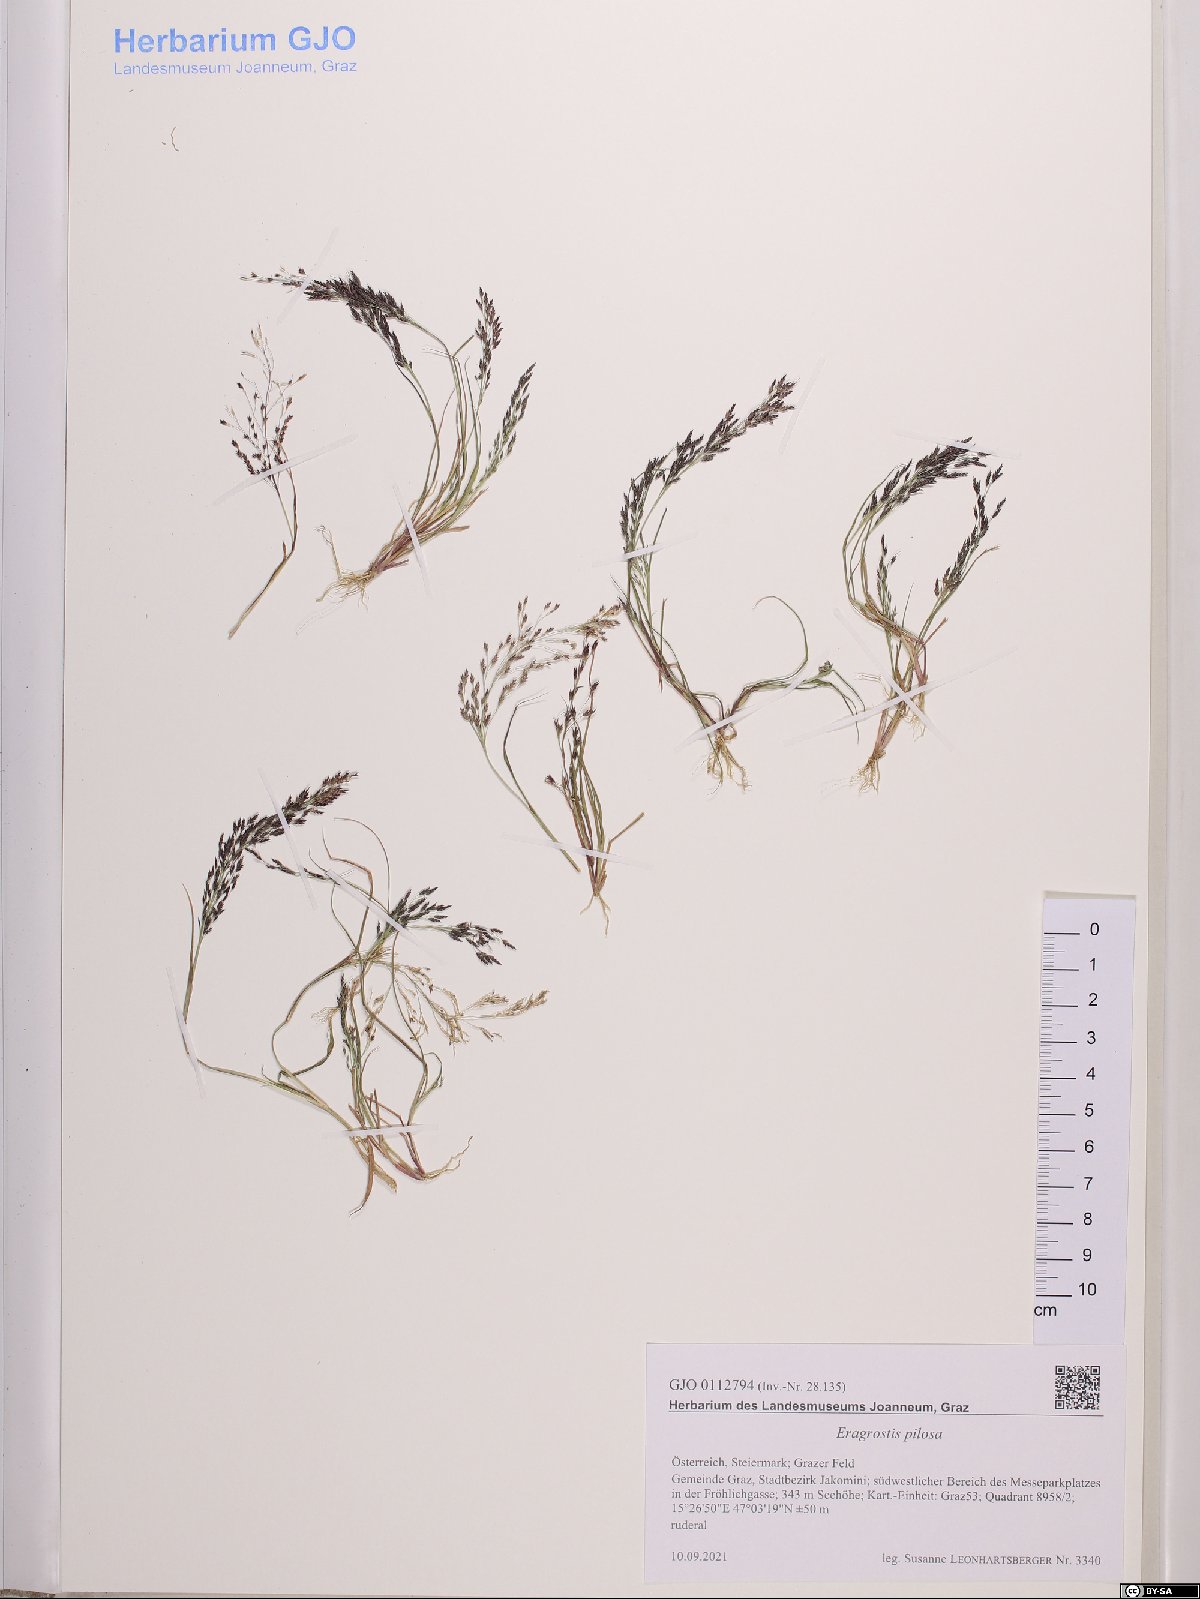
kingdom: Plantae
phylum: Tracheophyta
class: Liliopsida
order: Poales
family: Poaceae
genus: Eragrostis
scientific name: Eragrostis pilosa
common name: Indian lovegrass
